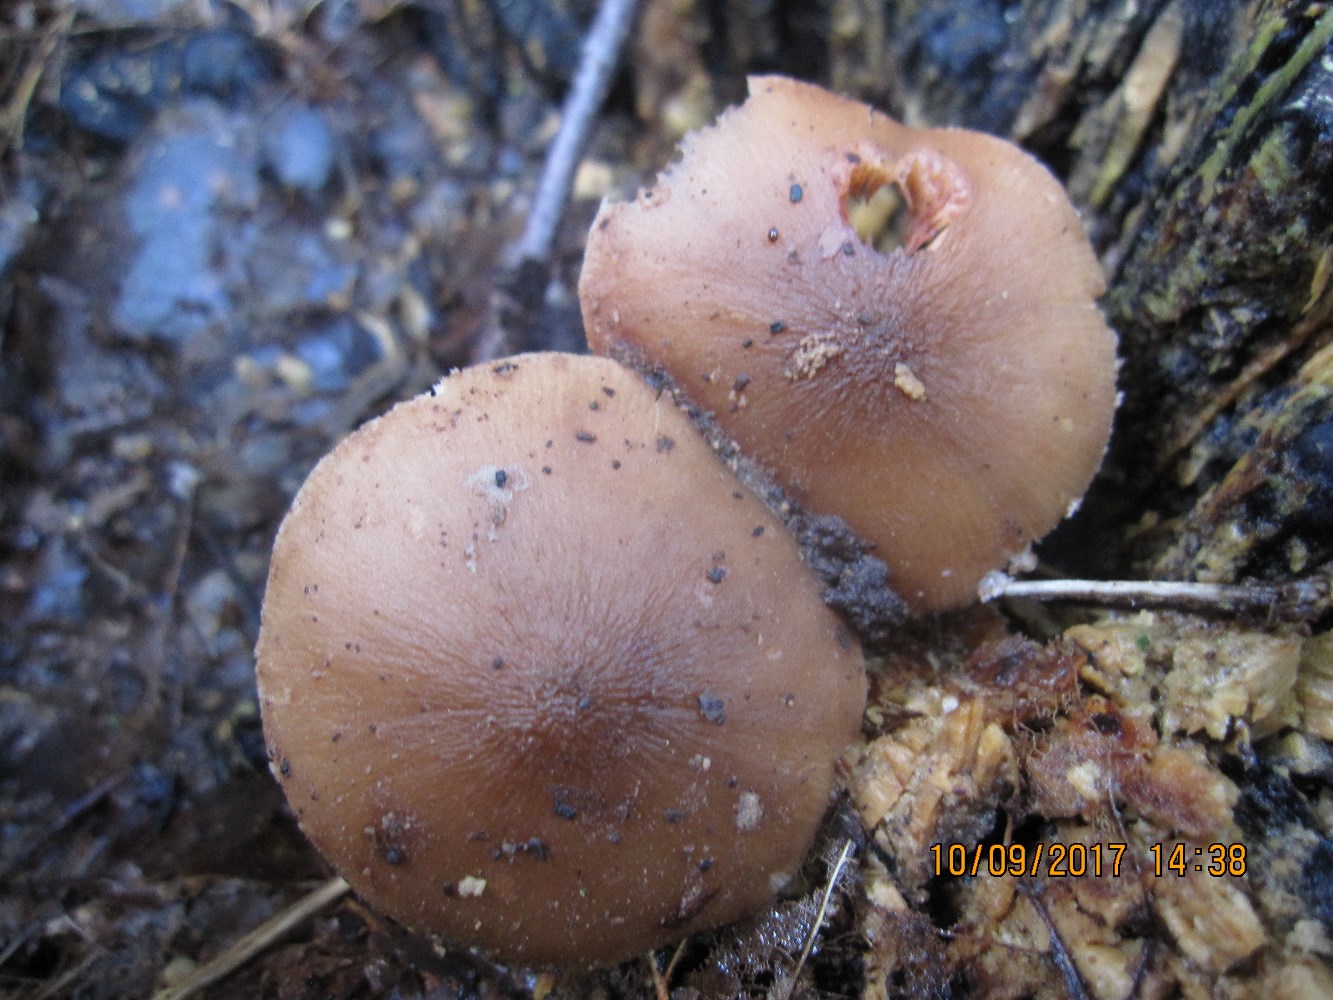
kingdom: Fungi
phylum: Basidiomycota
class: Agaricomycetes
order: Agaricales
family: Pluteaceae
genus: Pluteus
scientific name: Pluteus phlebophorus
